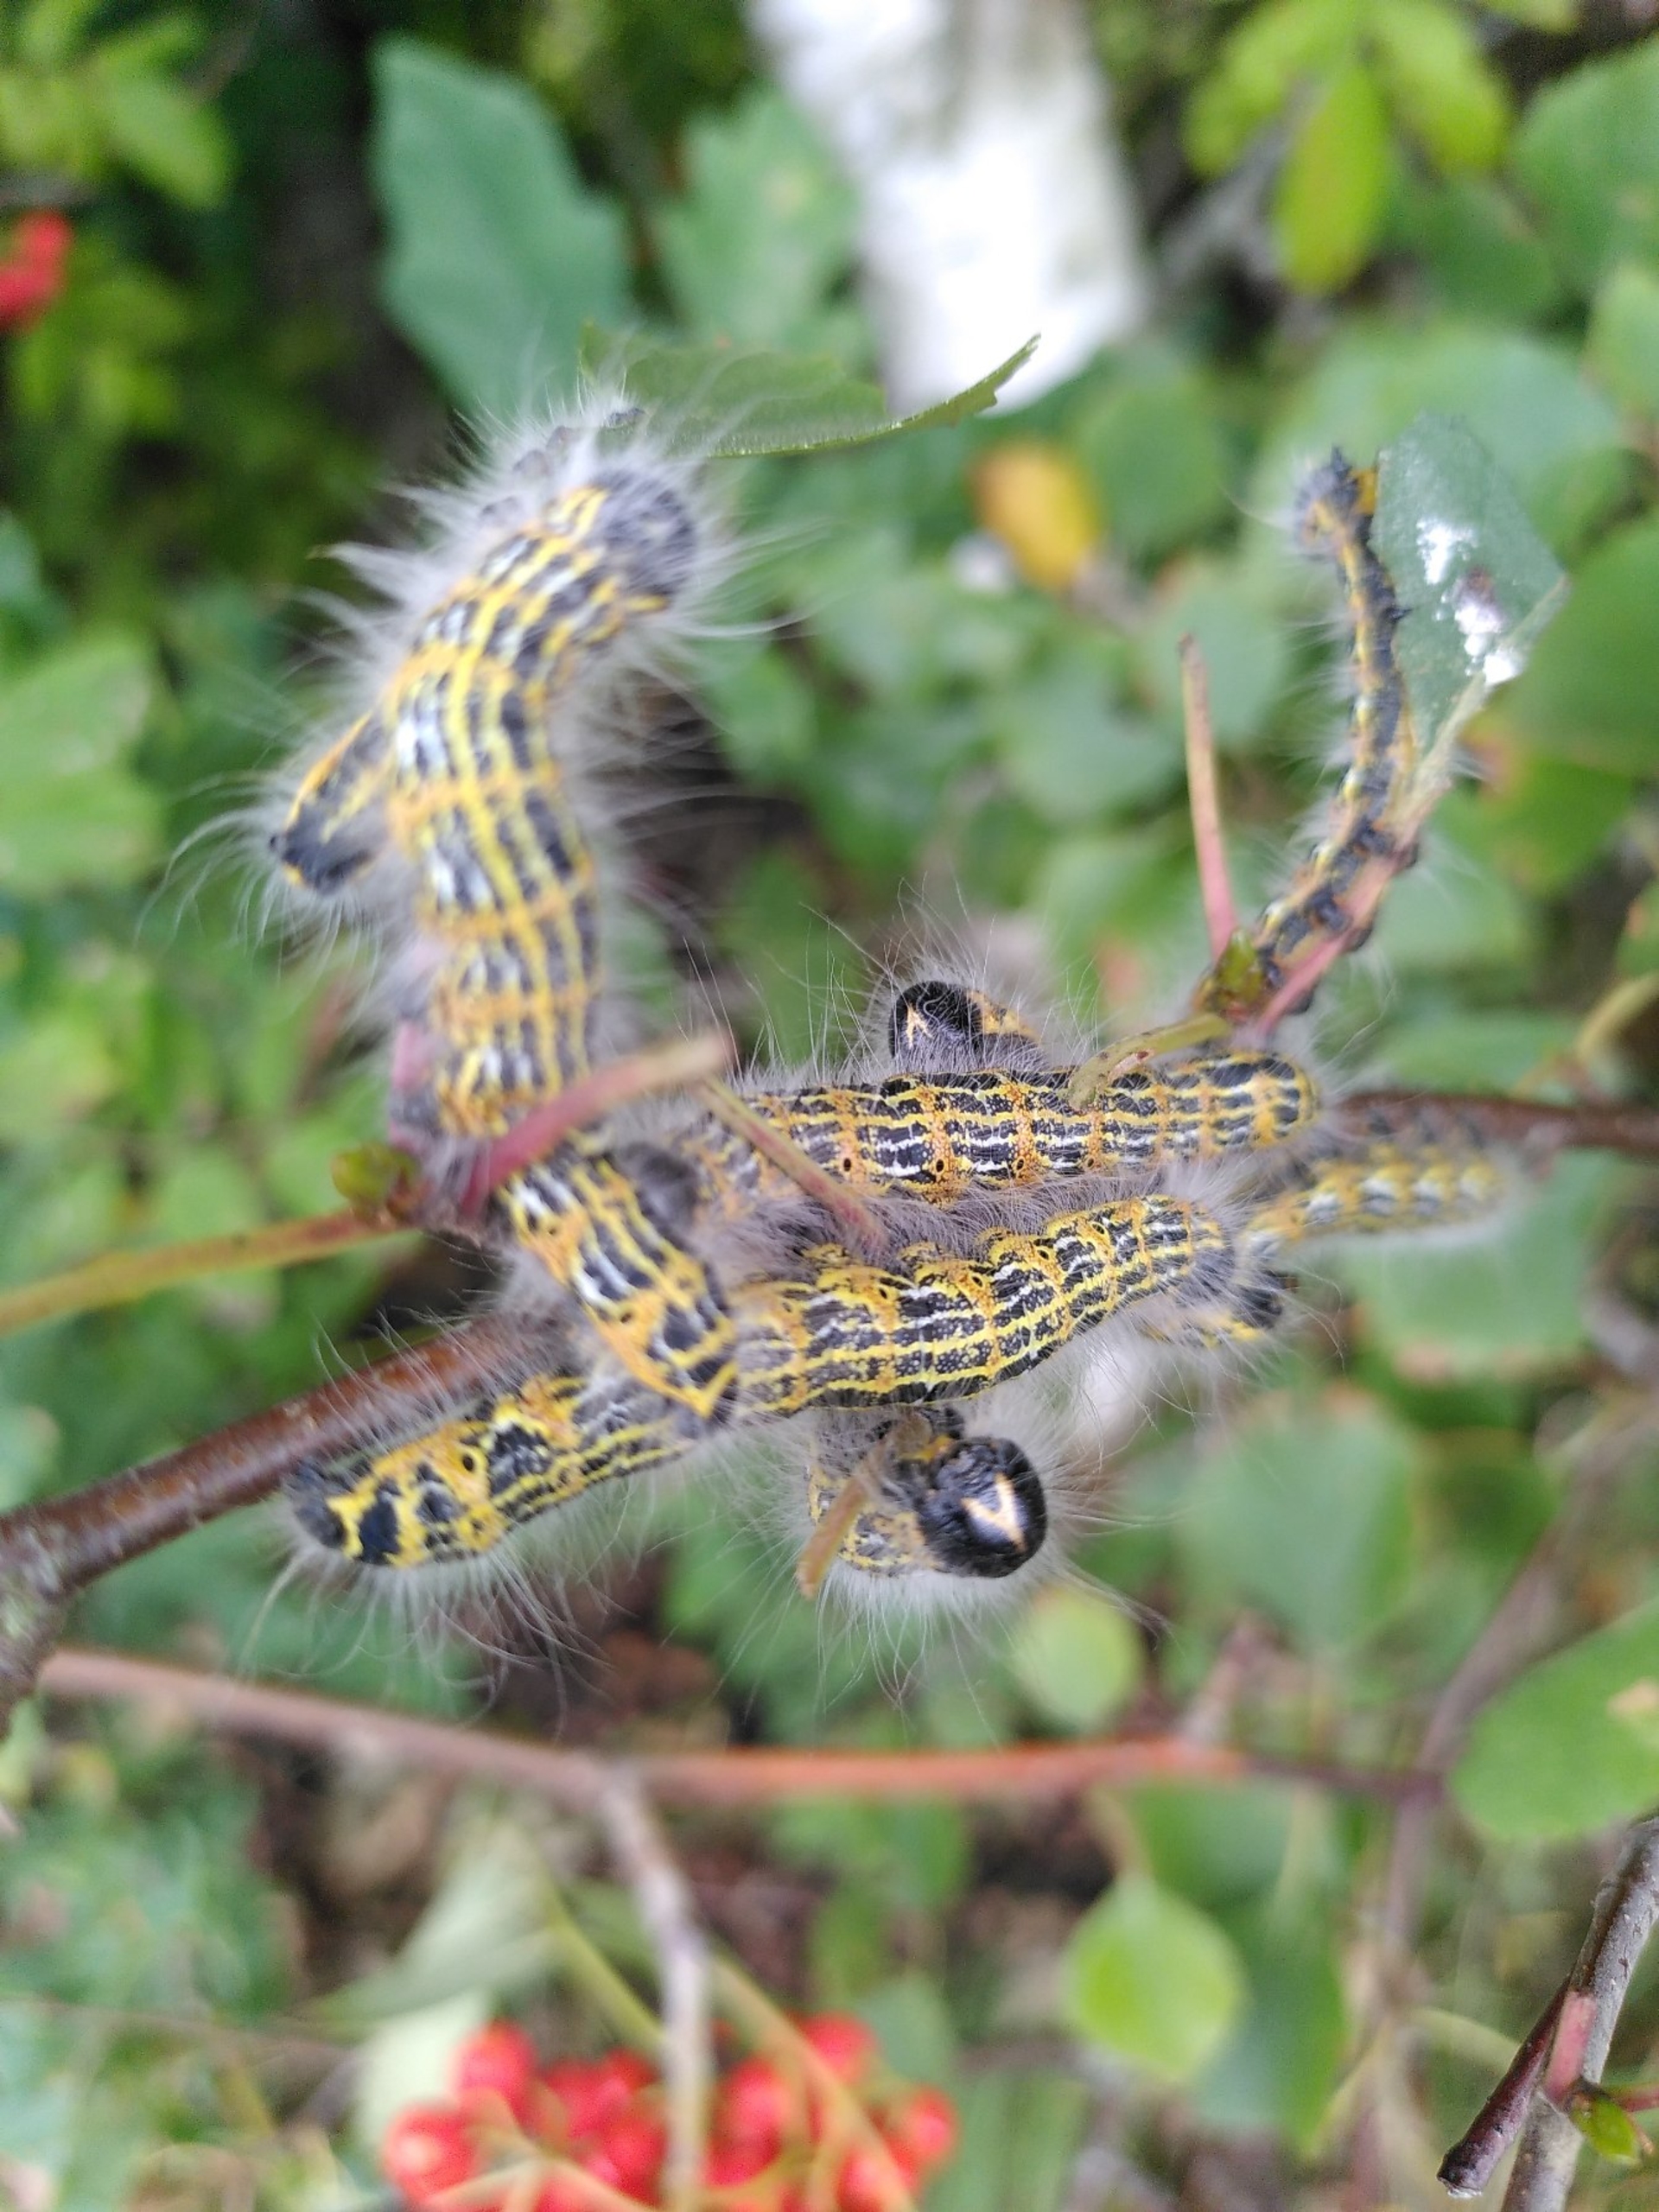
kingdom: Animalia
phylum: Arthropoda
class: Insecta
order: Lepidoptera
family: Notodontidae
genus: Phalera
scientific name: Phalera bucephala
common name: Måneplet
